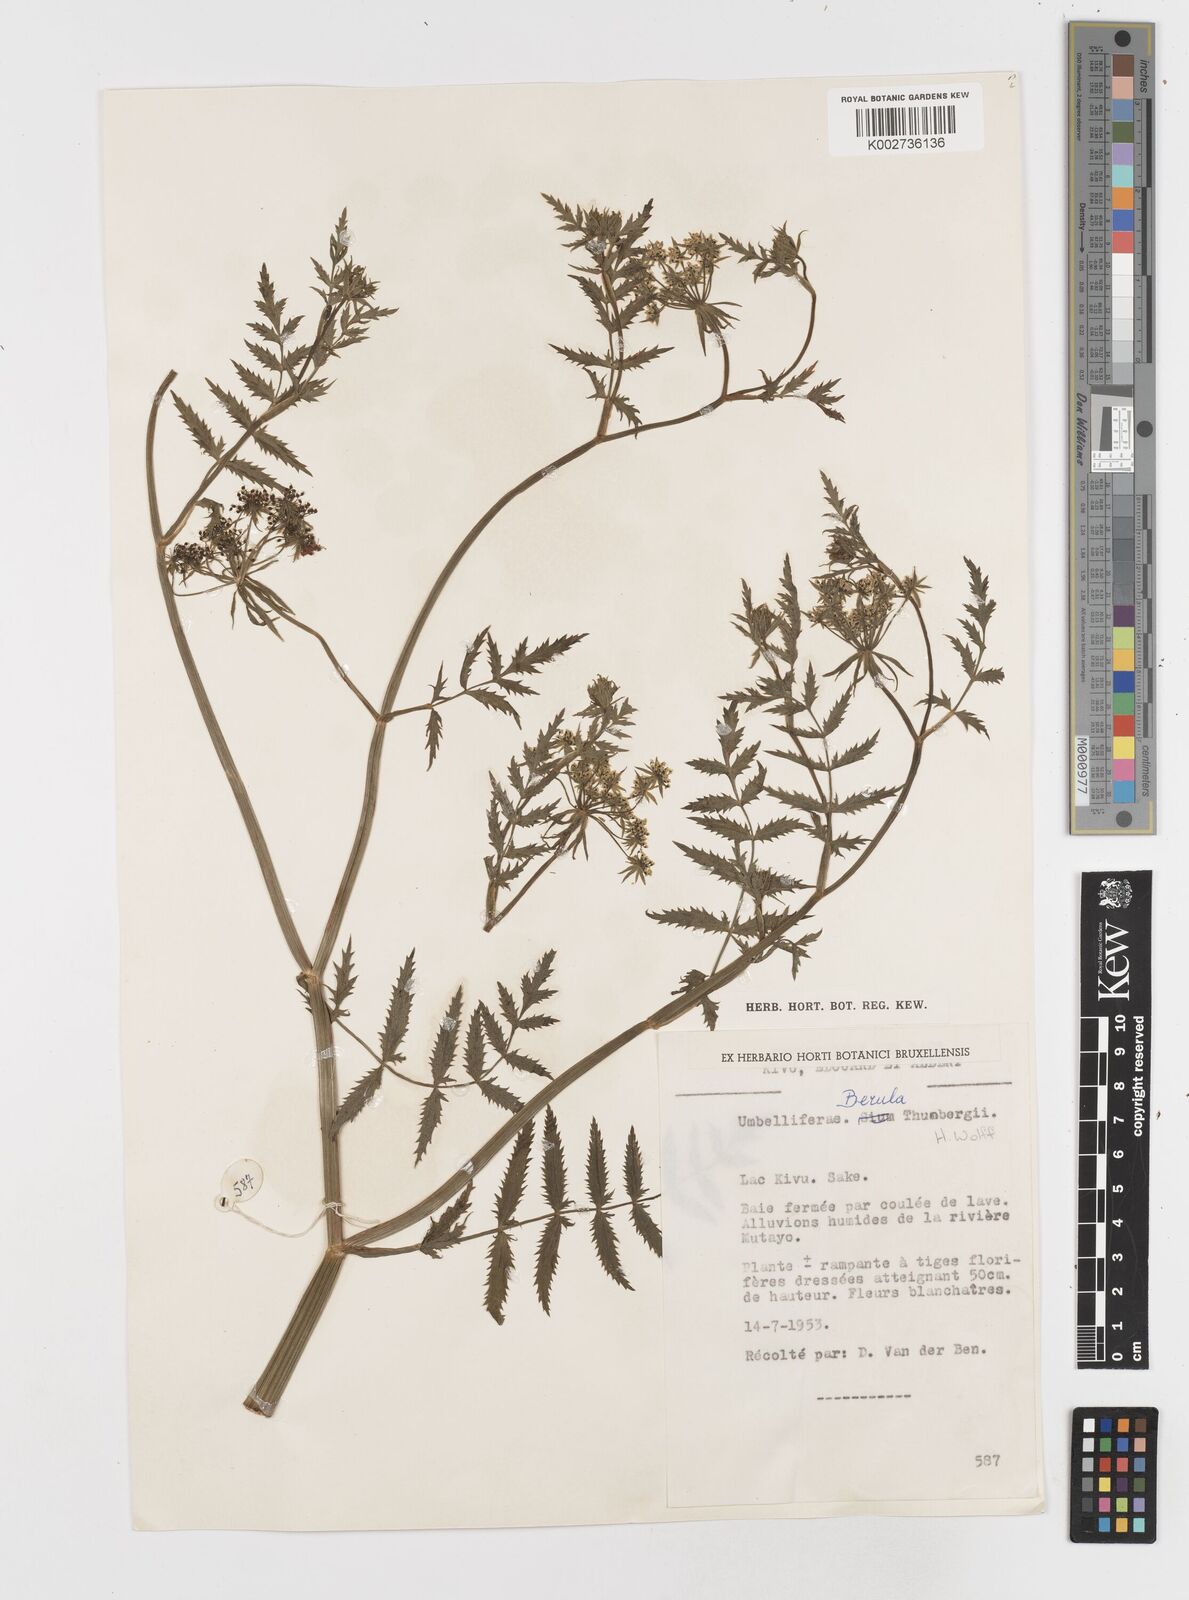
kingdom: Plantae
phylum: Tracheophyta
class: Magnoliopsida
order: Apiales
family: Apiaceae
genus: Berula
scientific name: Berula erecta
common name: Lesser water-parsnip
